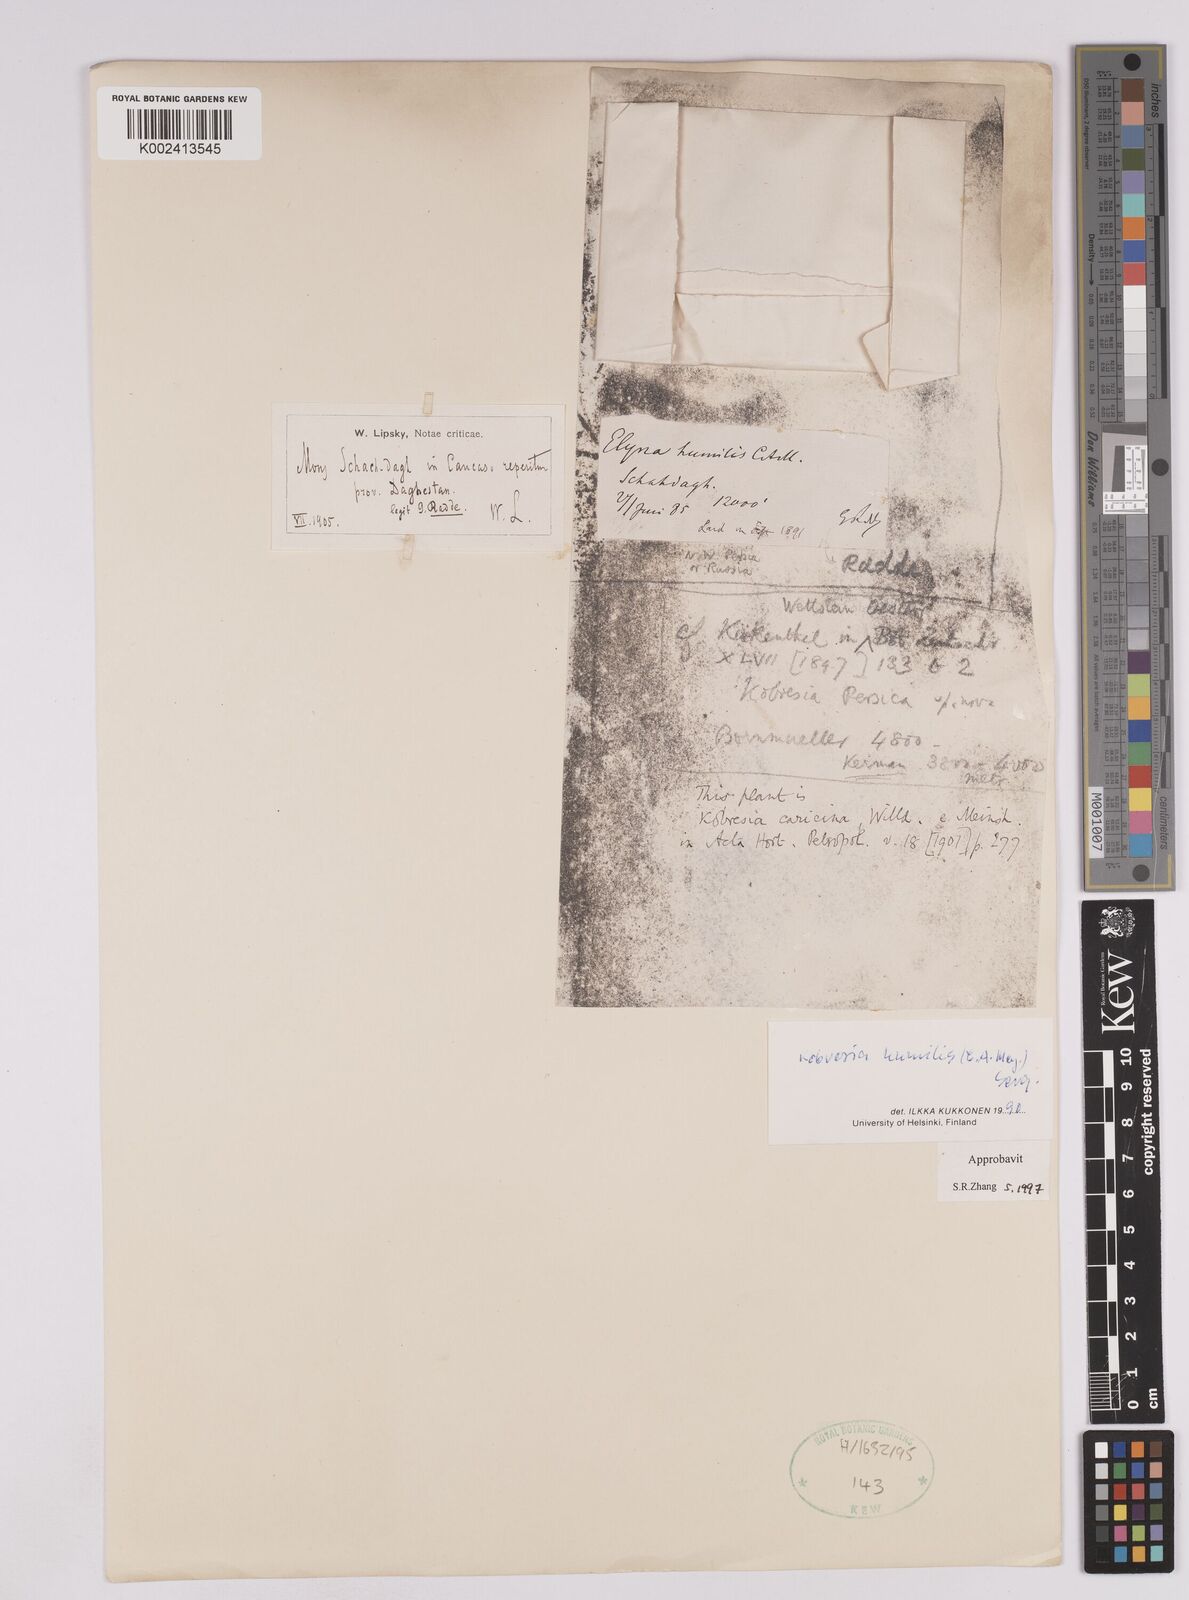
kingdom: Plantae
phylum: Tracheophyta
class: Liliopsida
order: Poales
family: Cyperaceae
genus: Carex
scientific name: Carex alatauensis
